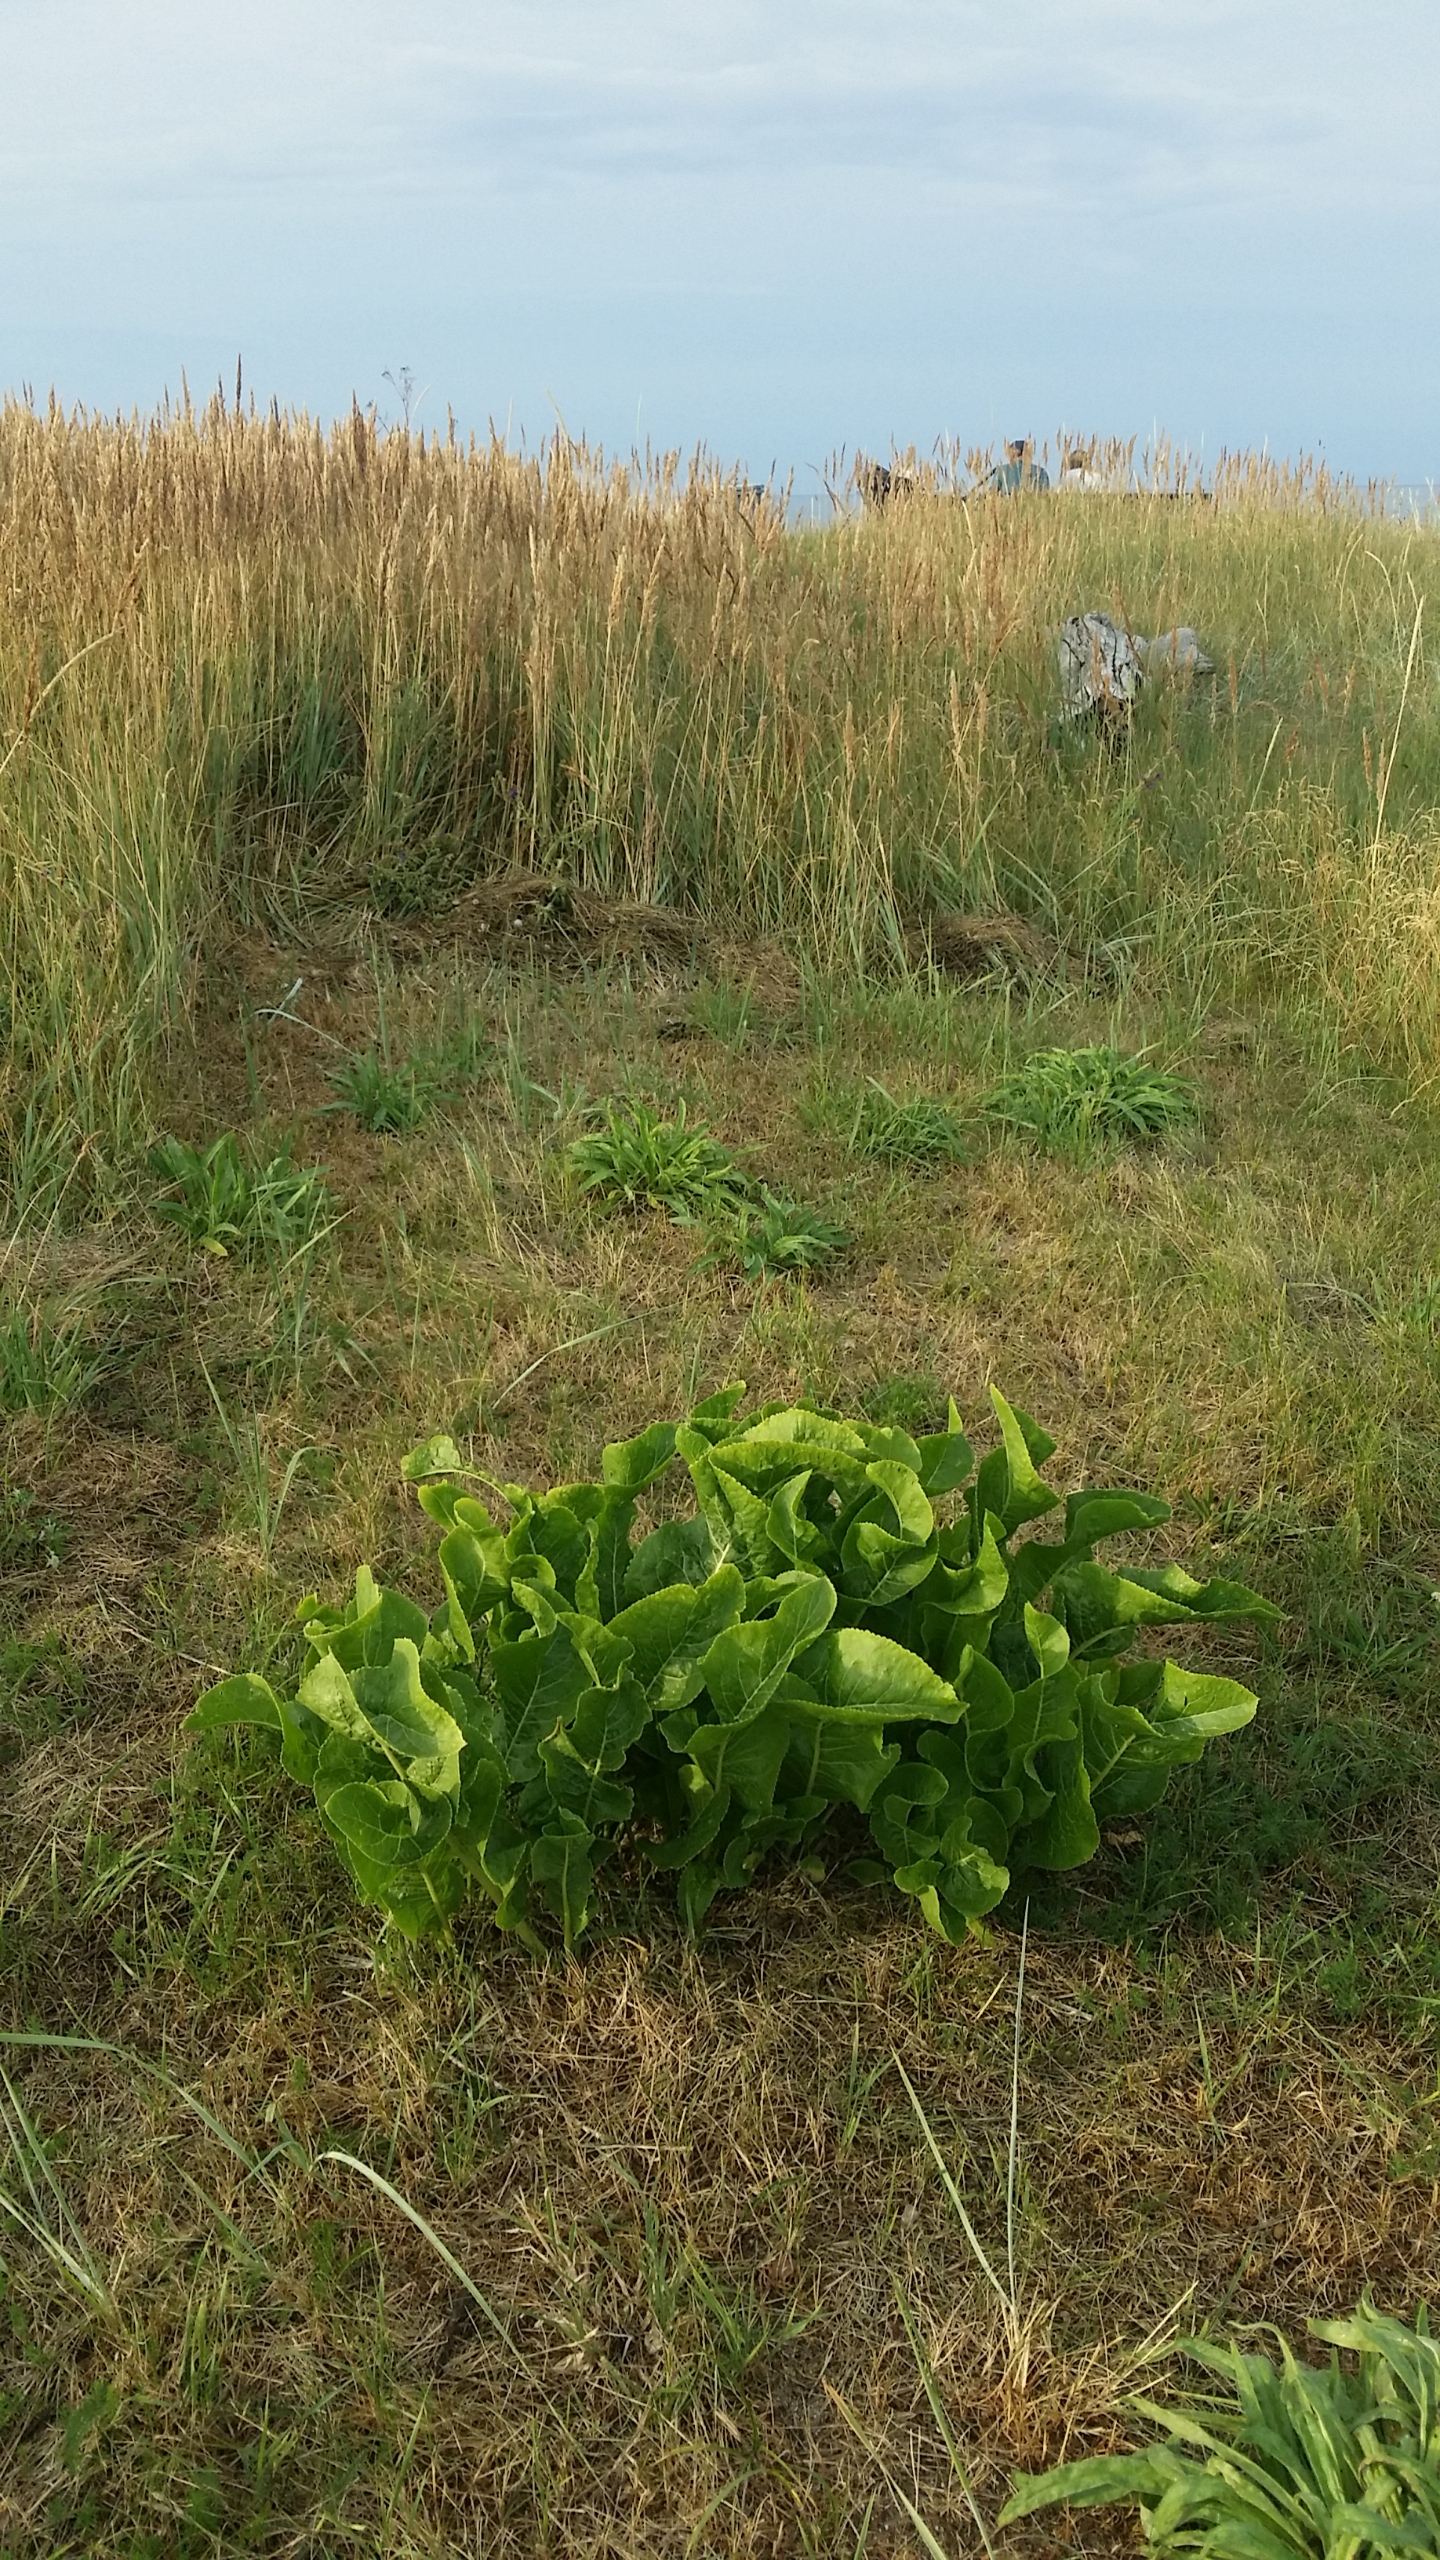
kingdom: Plantae
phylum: Tracheophyta
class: Magnoliopsida
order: Brassicales
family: Brassicaceae
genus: Armoracia
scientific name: Armoracia rusticana
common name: Peberrod
